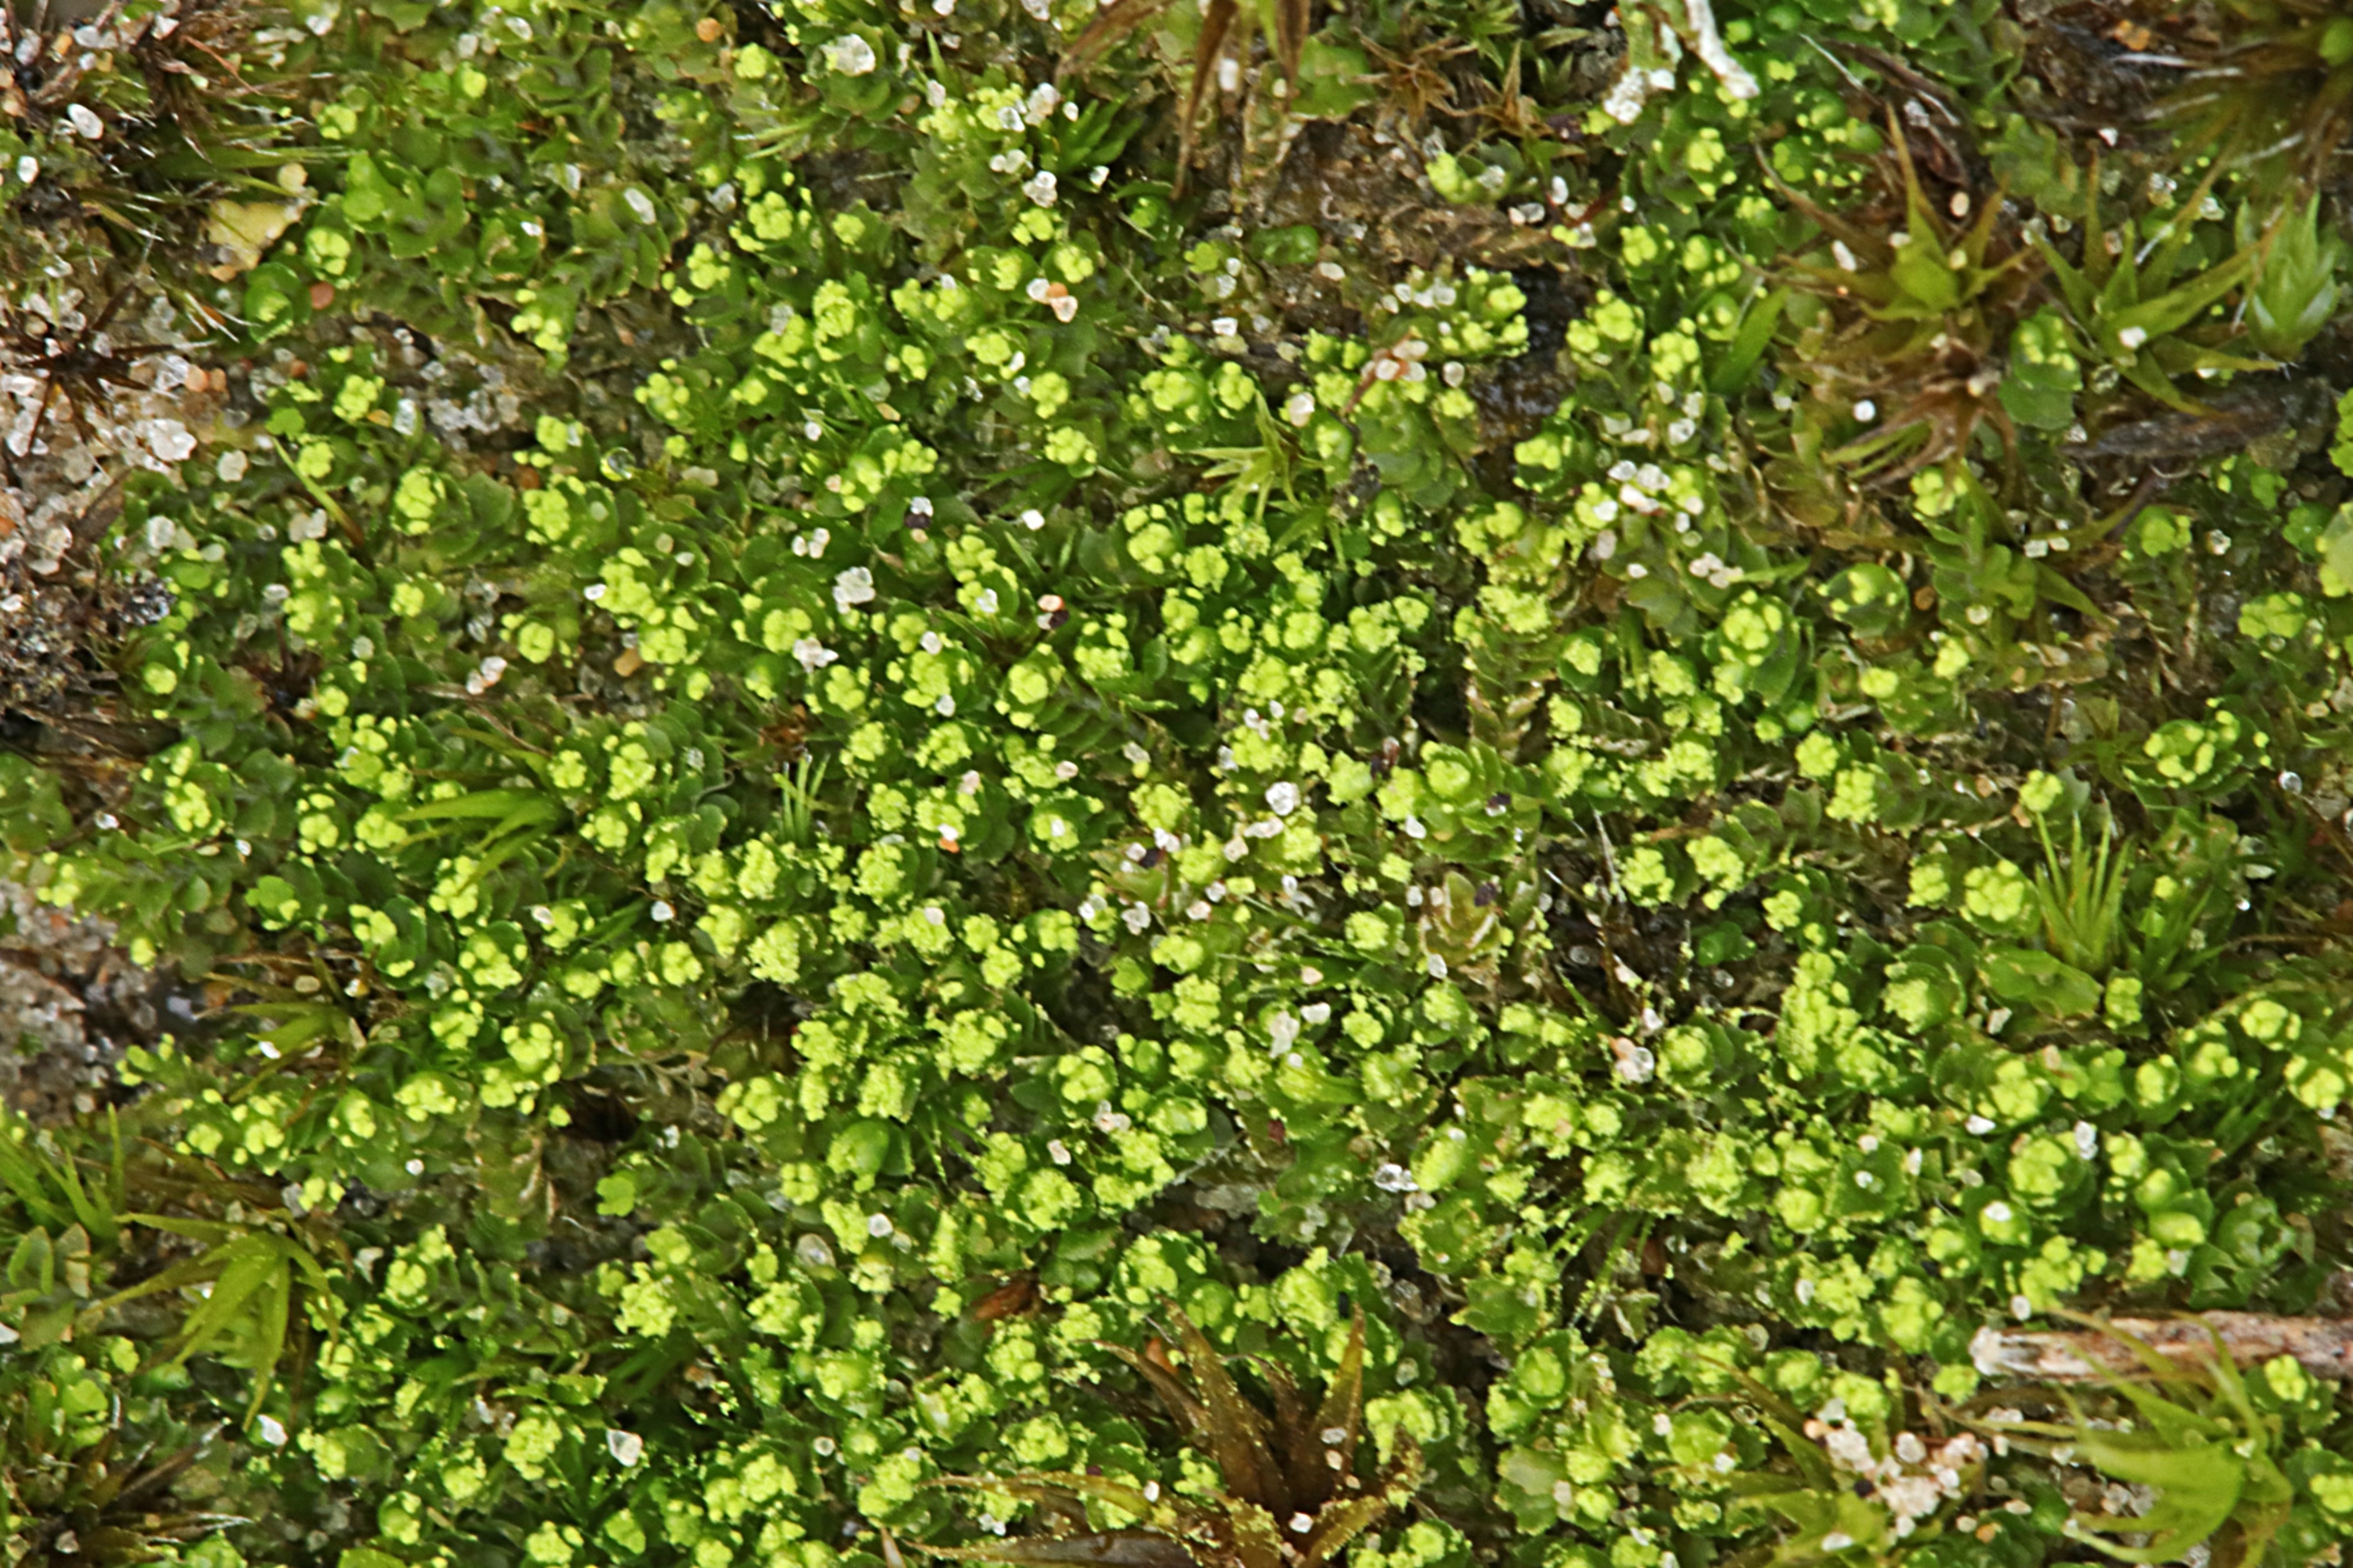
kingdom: Plantae
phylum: Marchantiophyta
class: Jungermanniopsida
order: Jungermanniales
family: Lophoziaceae
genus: Lophozia
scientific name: Lophozia wenzelii
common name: Skeblad-foldbæger
